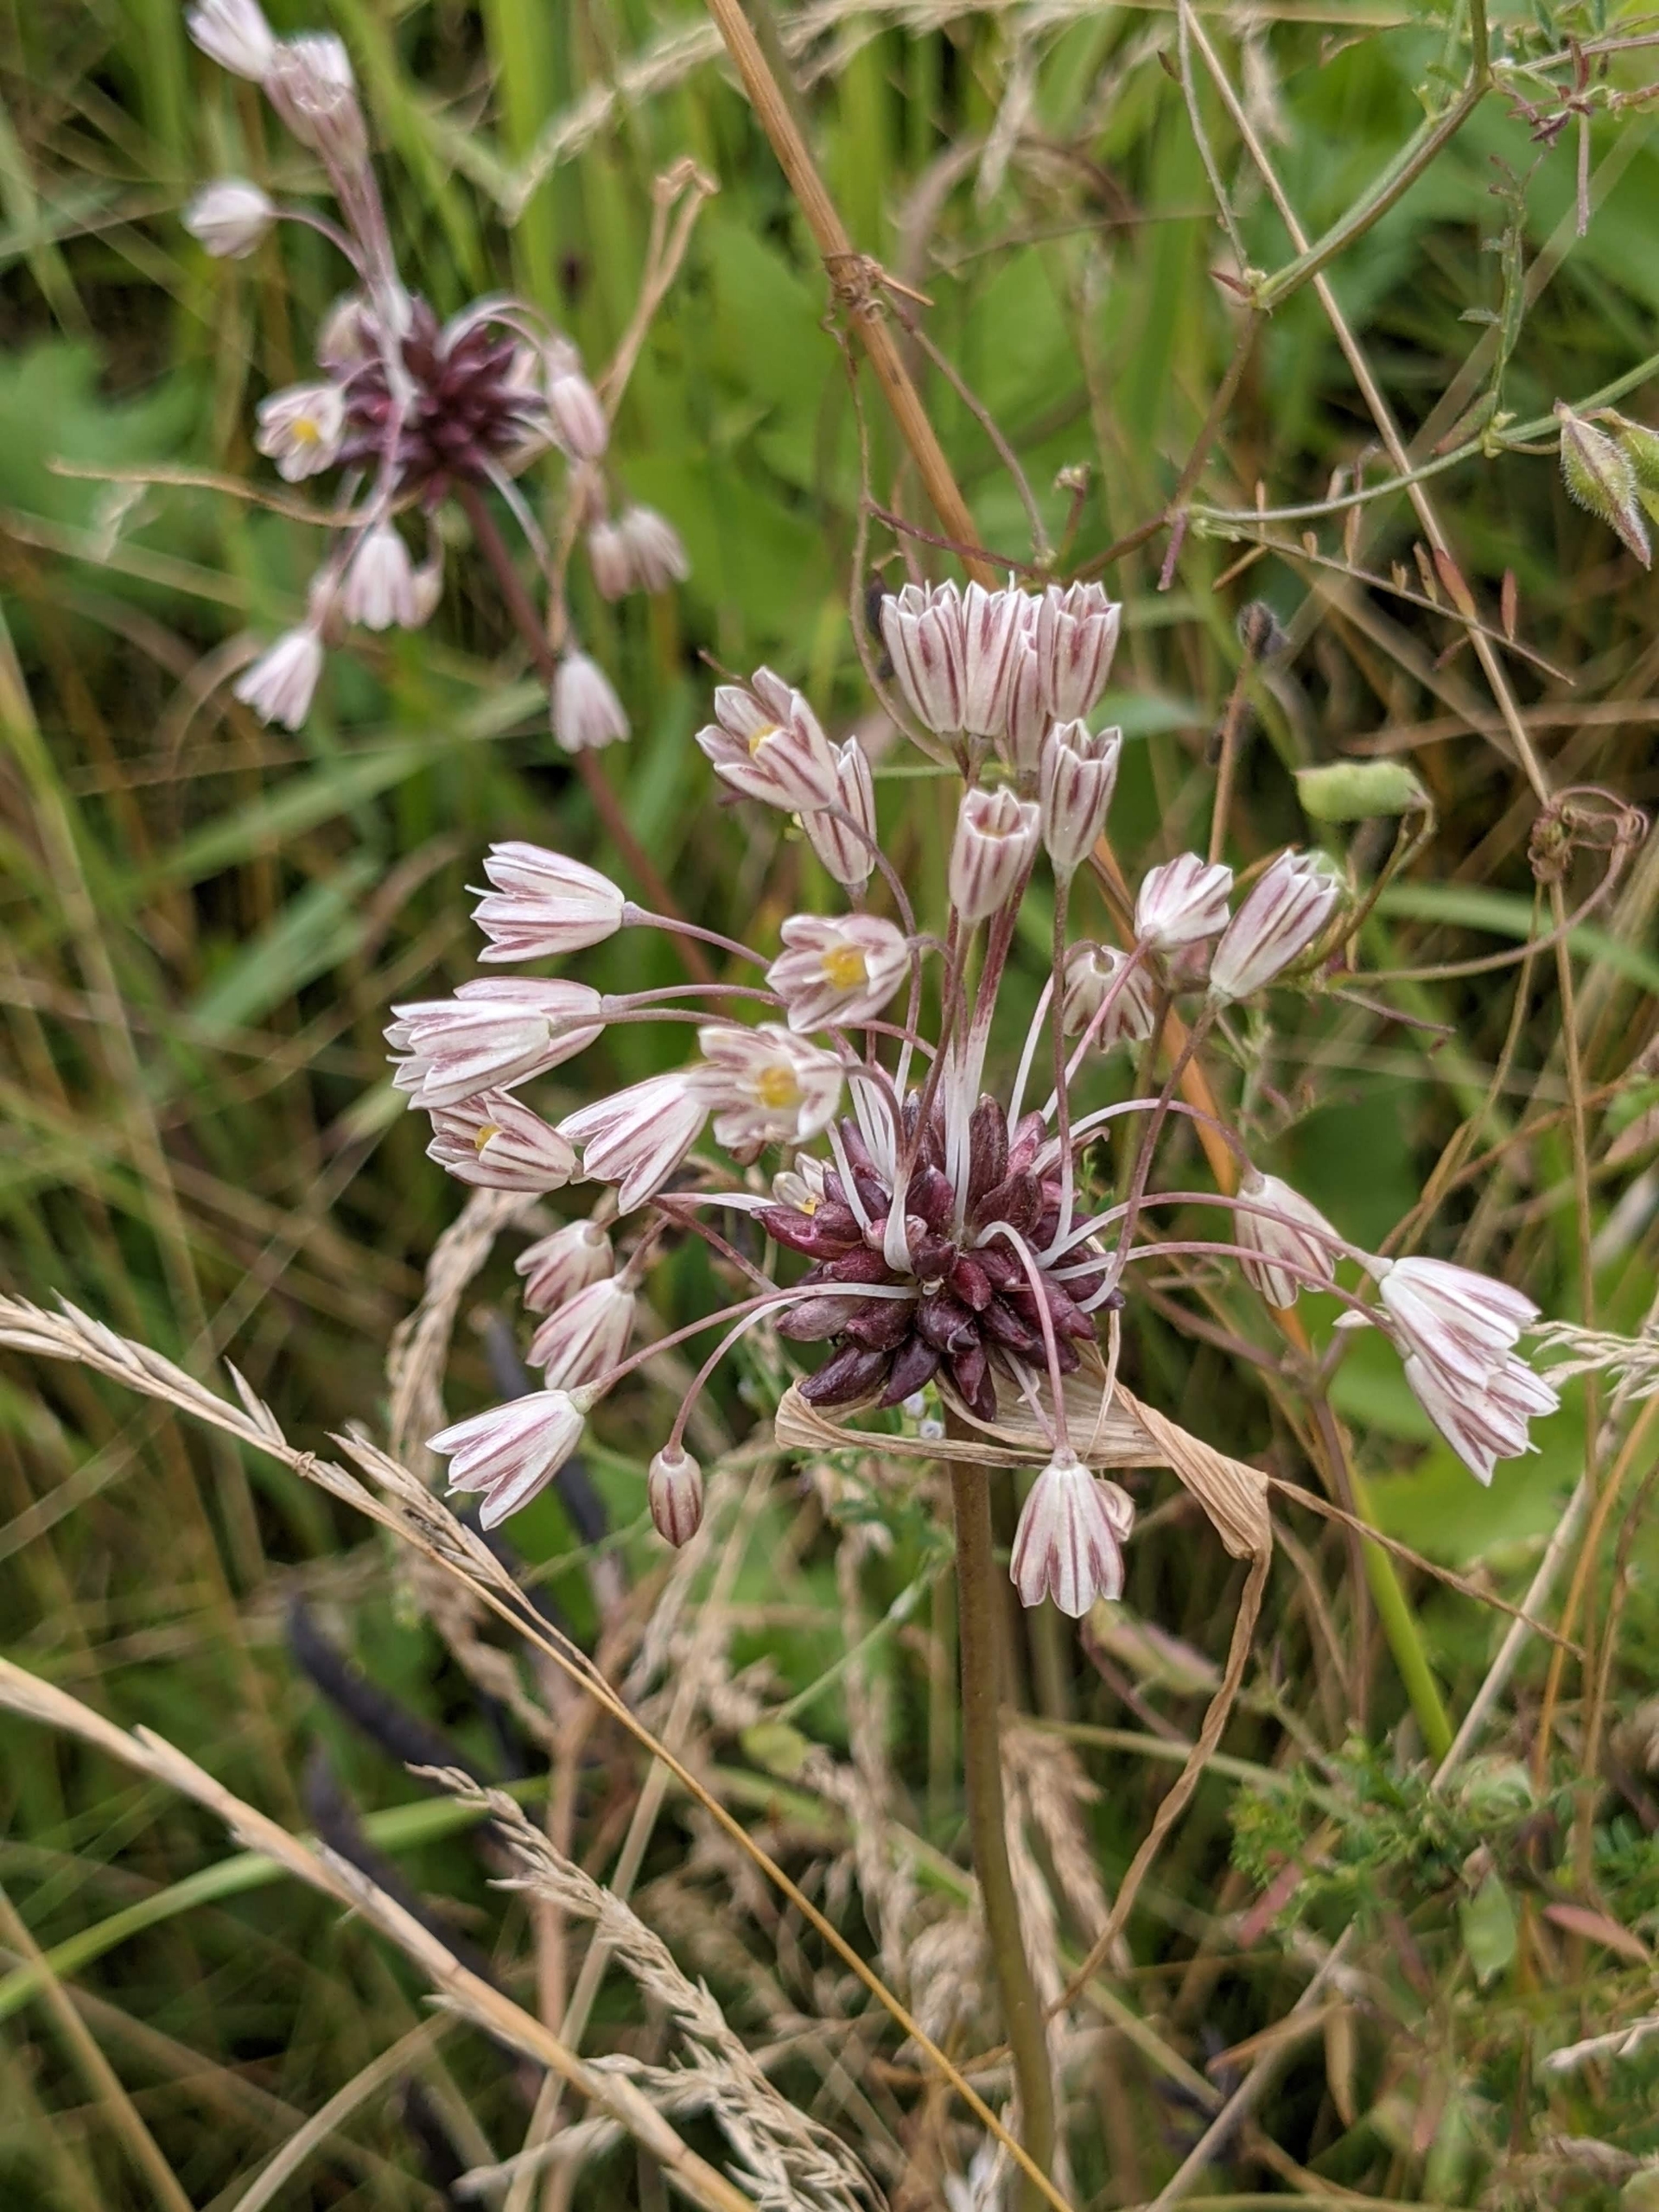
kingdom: Plantae
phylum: Tracheophyta
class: Liliopsida
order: Asparagales
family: Amaryllidaceae
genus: Allium
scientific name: Allium oleraceum
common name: Vild løg
